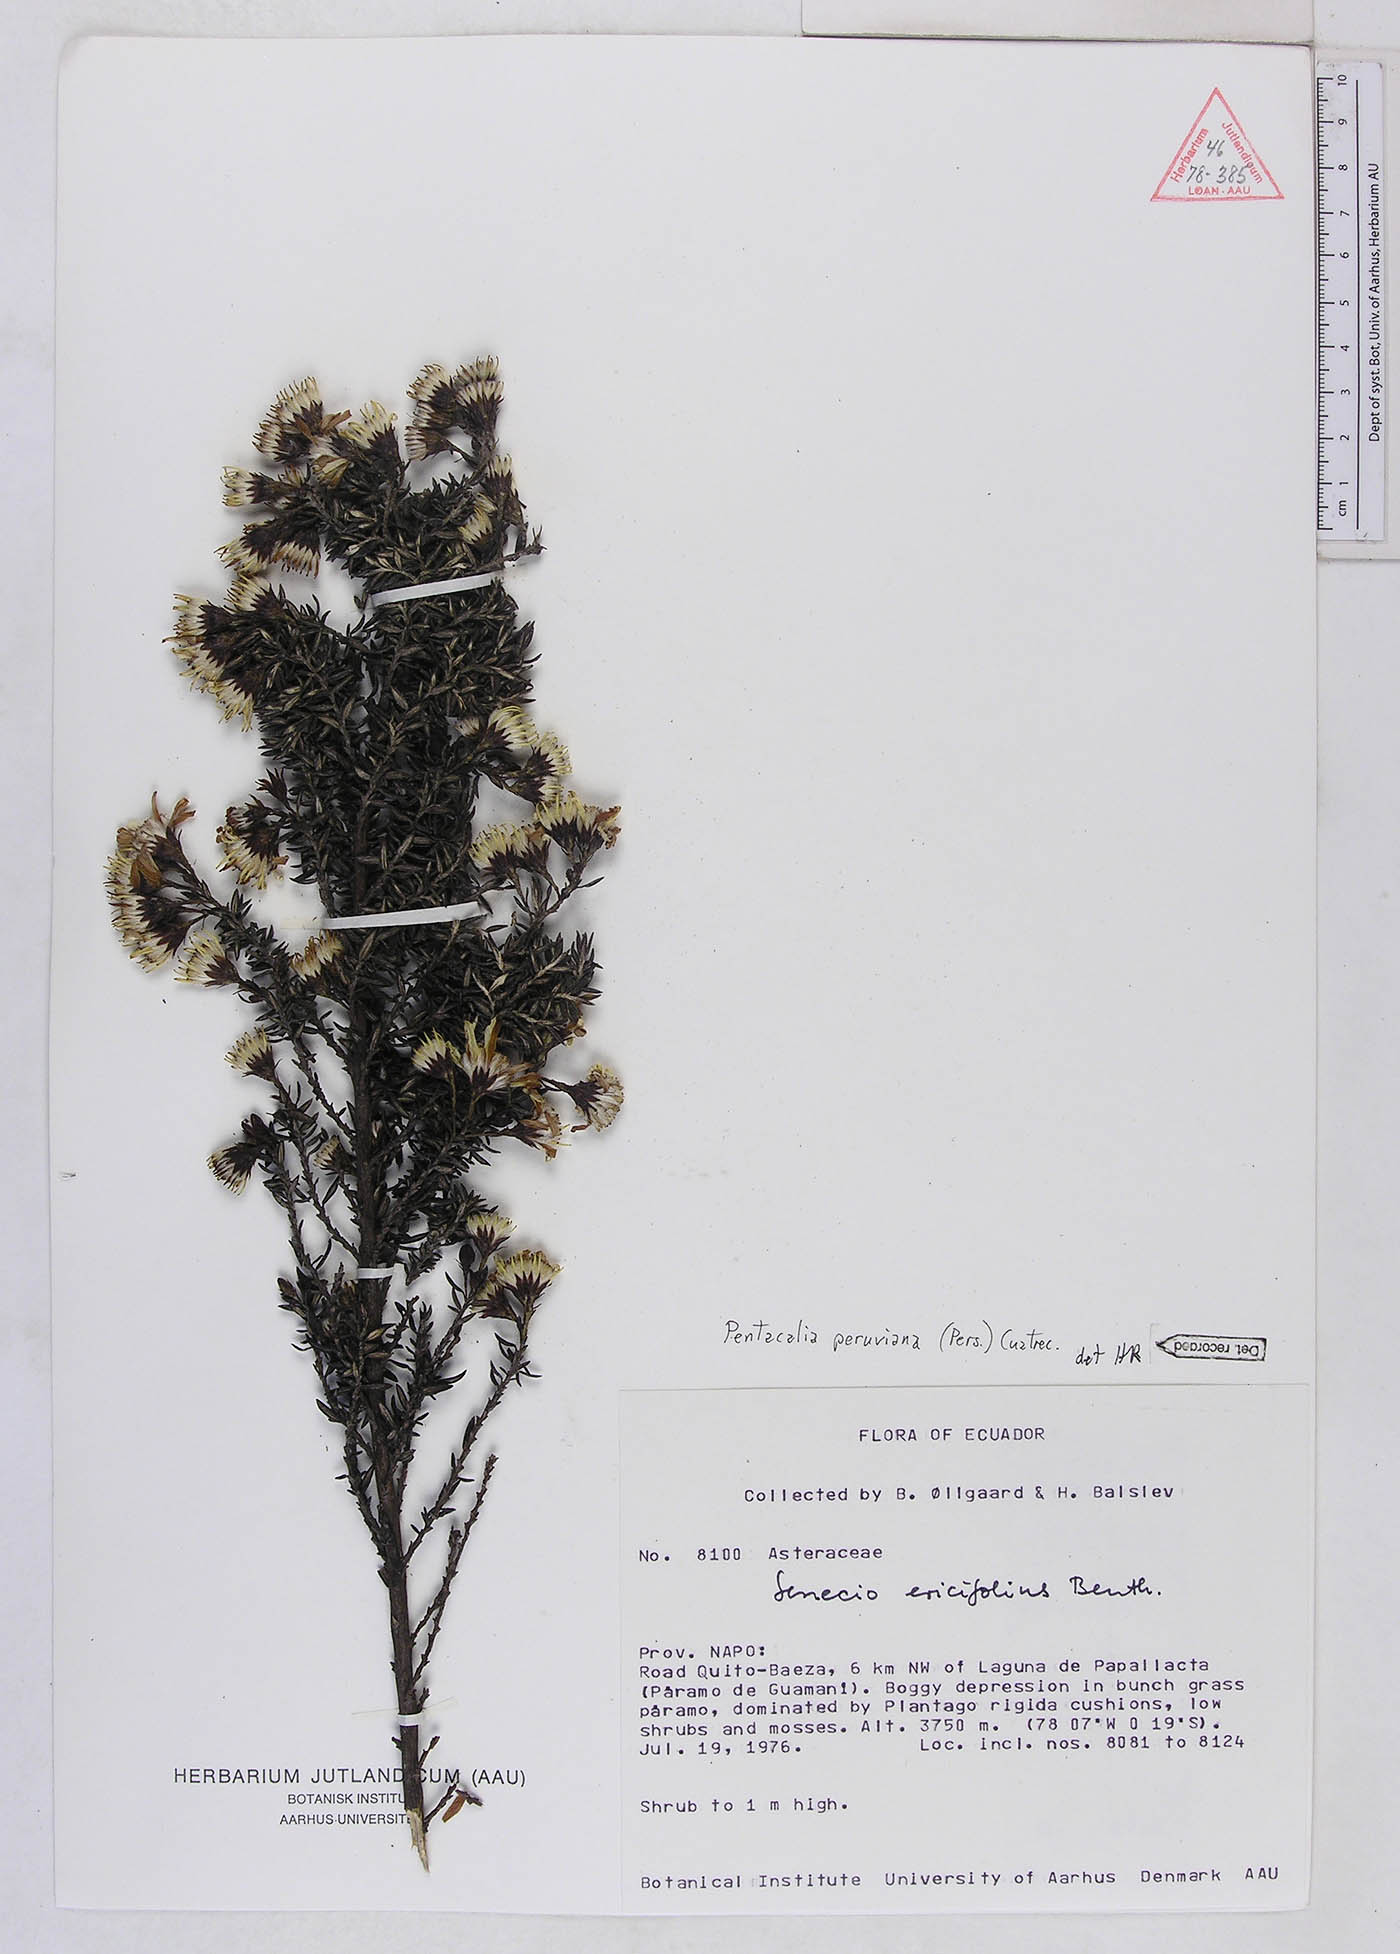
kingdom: Plantae
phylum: Tracheophyta
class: Magnoliopsida
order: Asterales
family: Asteraceae
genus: Monticalia
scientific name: Monticalia peruviana
